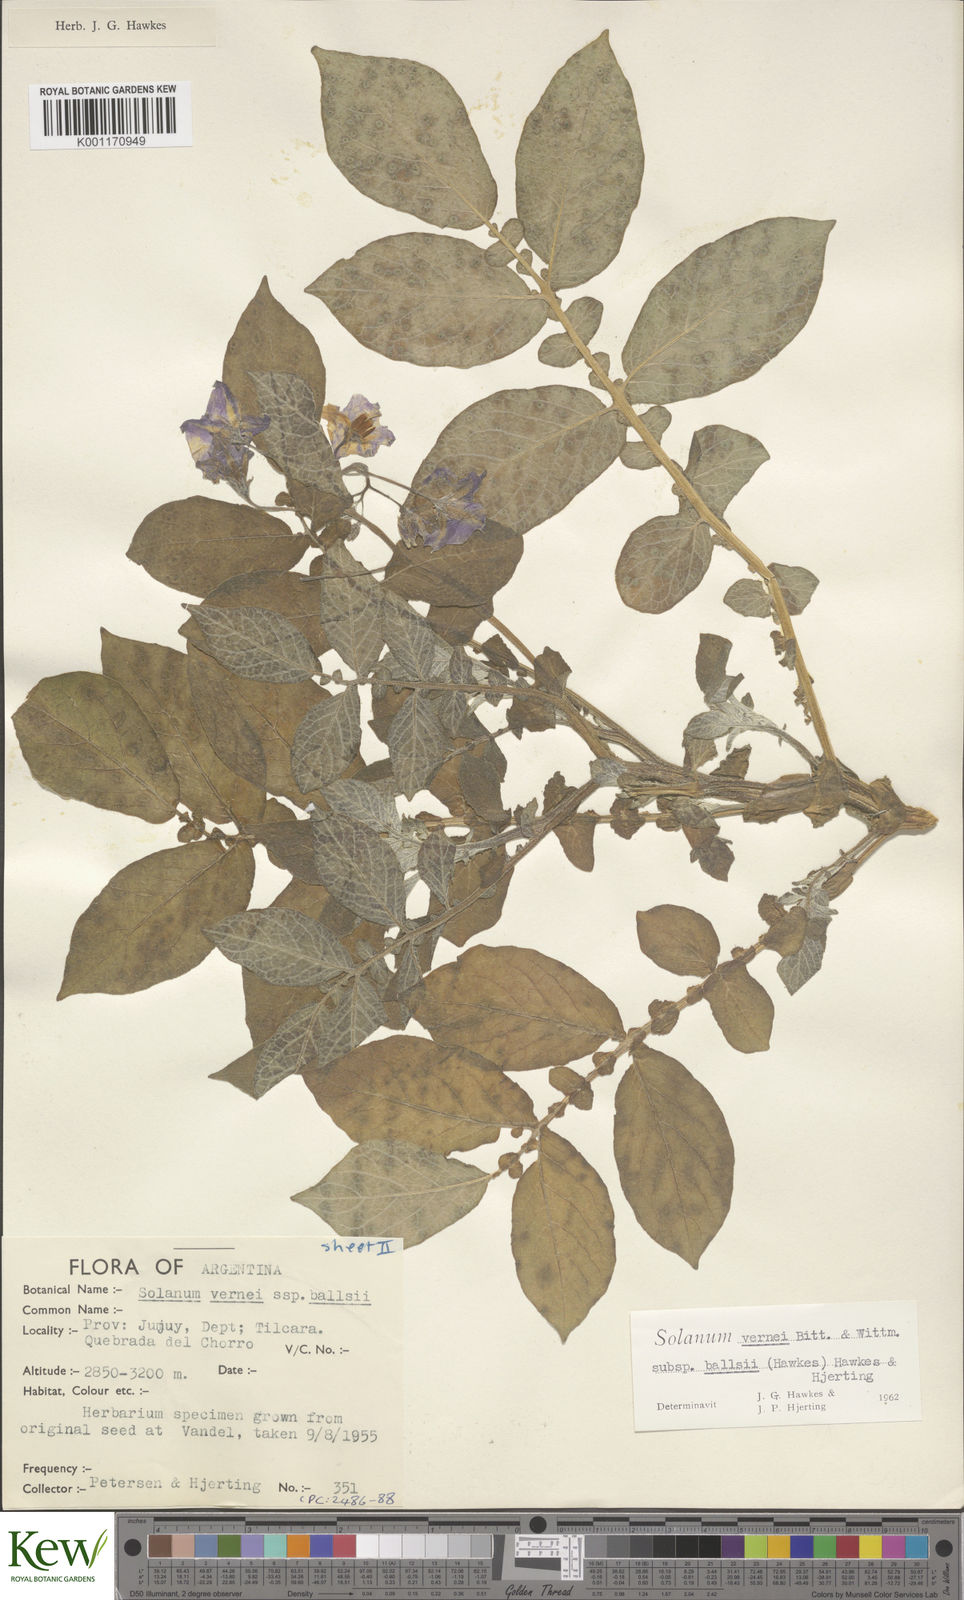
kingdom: Plantae
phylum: Tracheophyta
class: Magnoliopsida
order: Solanales
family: Solanaceae
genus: Solanum
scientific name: Solanum vernei
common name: Purple potato
